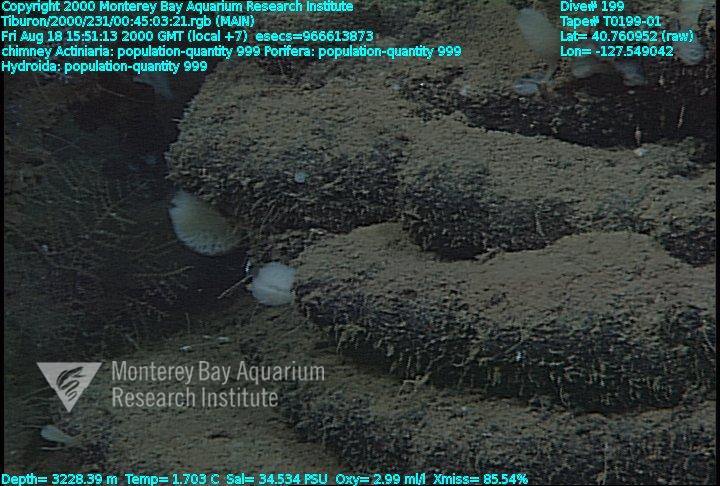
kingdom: Animalia
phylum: Porifera
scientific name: Porifera
